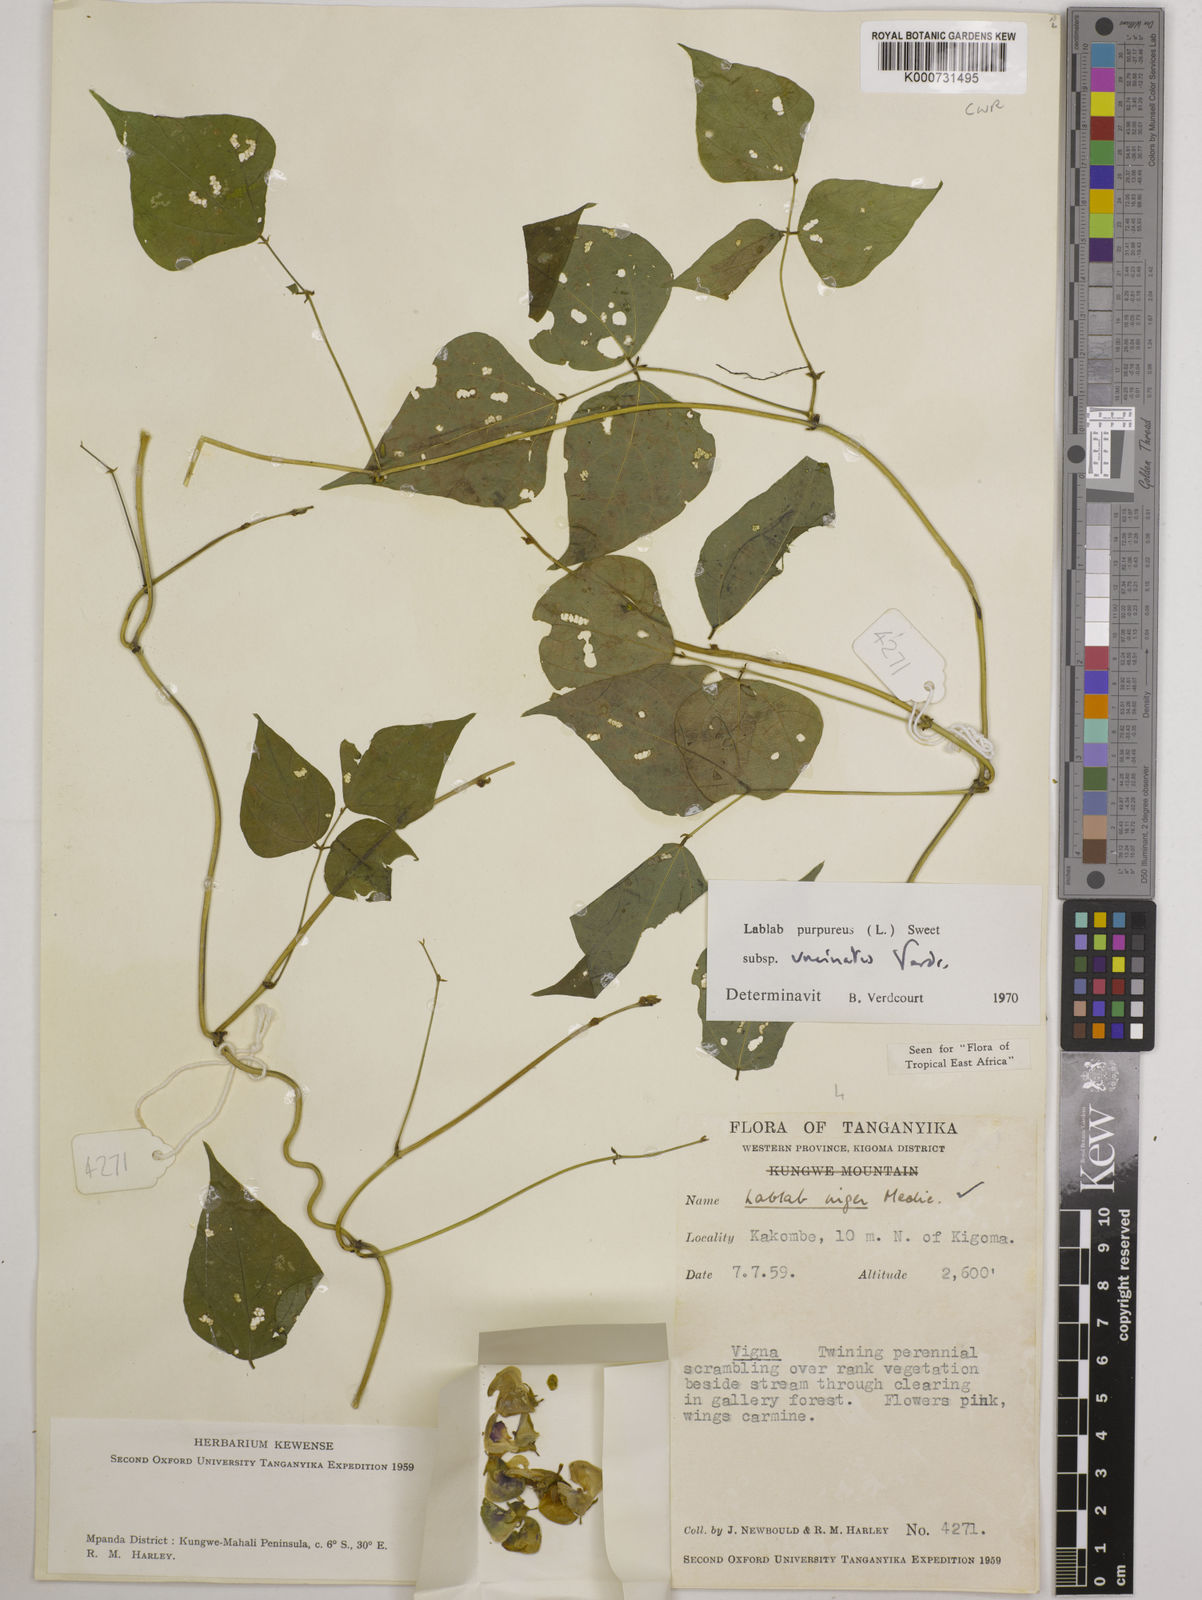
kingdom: Plantae
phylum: Tracheophyta
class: Magnoliopsida
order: Fabales
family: Fabaceae
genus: Lablab
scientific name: Lablab purpureus
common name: Lablab-bean
